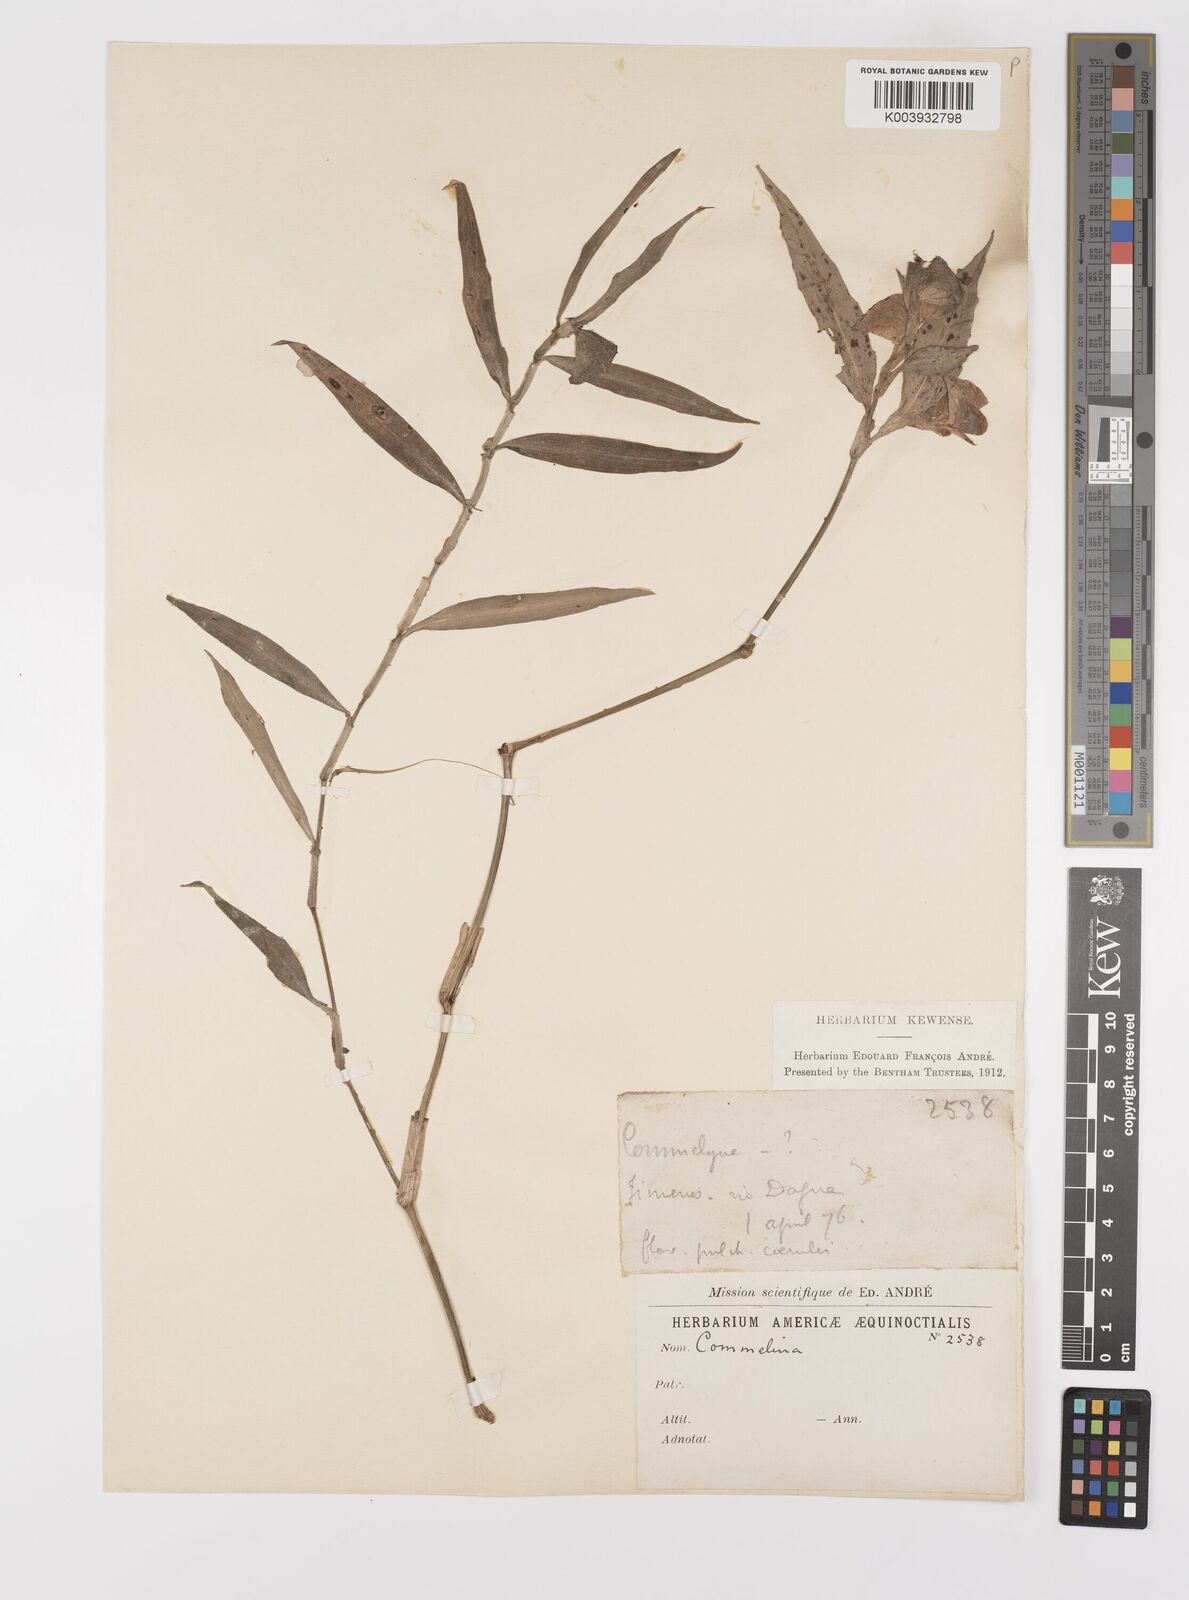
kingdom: Plantae
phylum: Tracheophyta
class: Liliopsida
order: Commelinales
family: Commelinaceae
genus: Commelina
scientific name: Commelina
